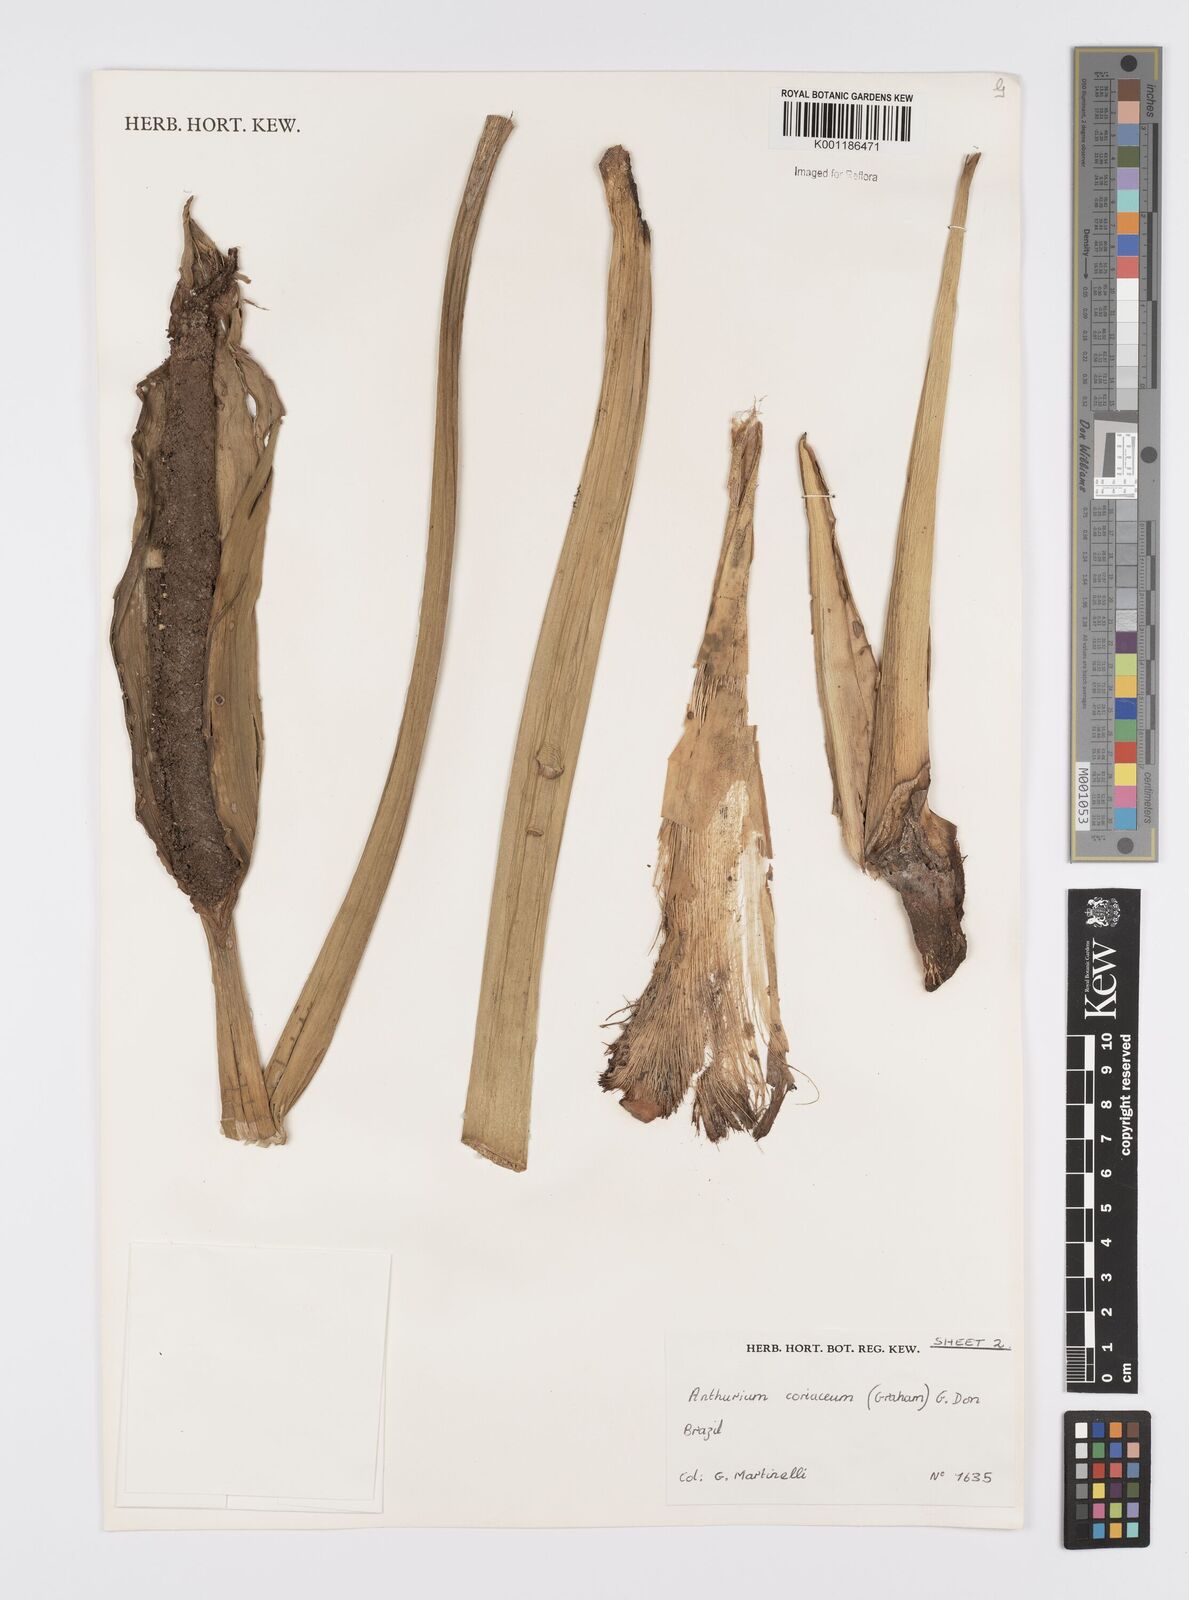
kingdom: Plantae
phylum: Tracheophyta
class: Liliopsida
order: Alismatales
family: Araceae
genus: Anthurium
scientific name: Anthurium coriaceum
